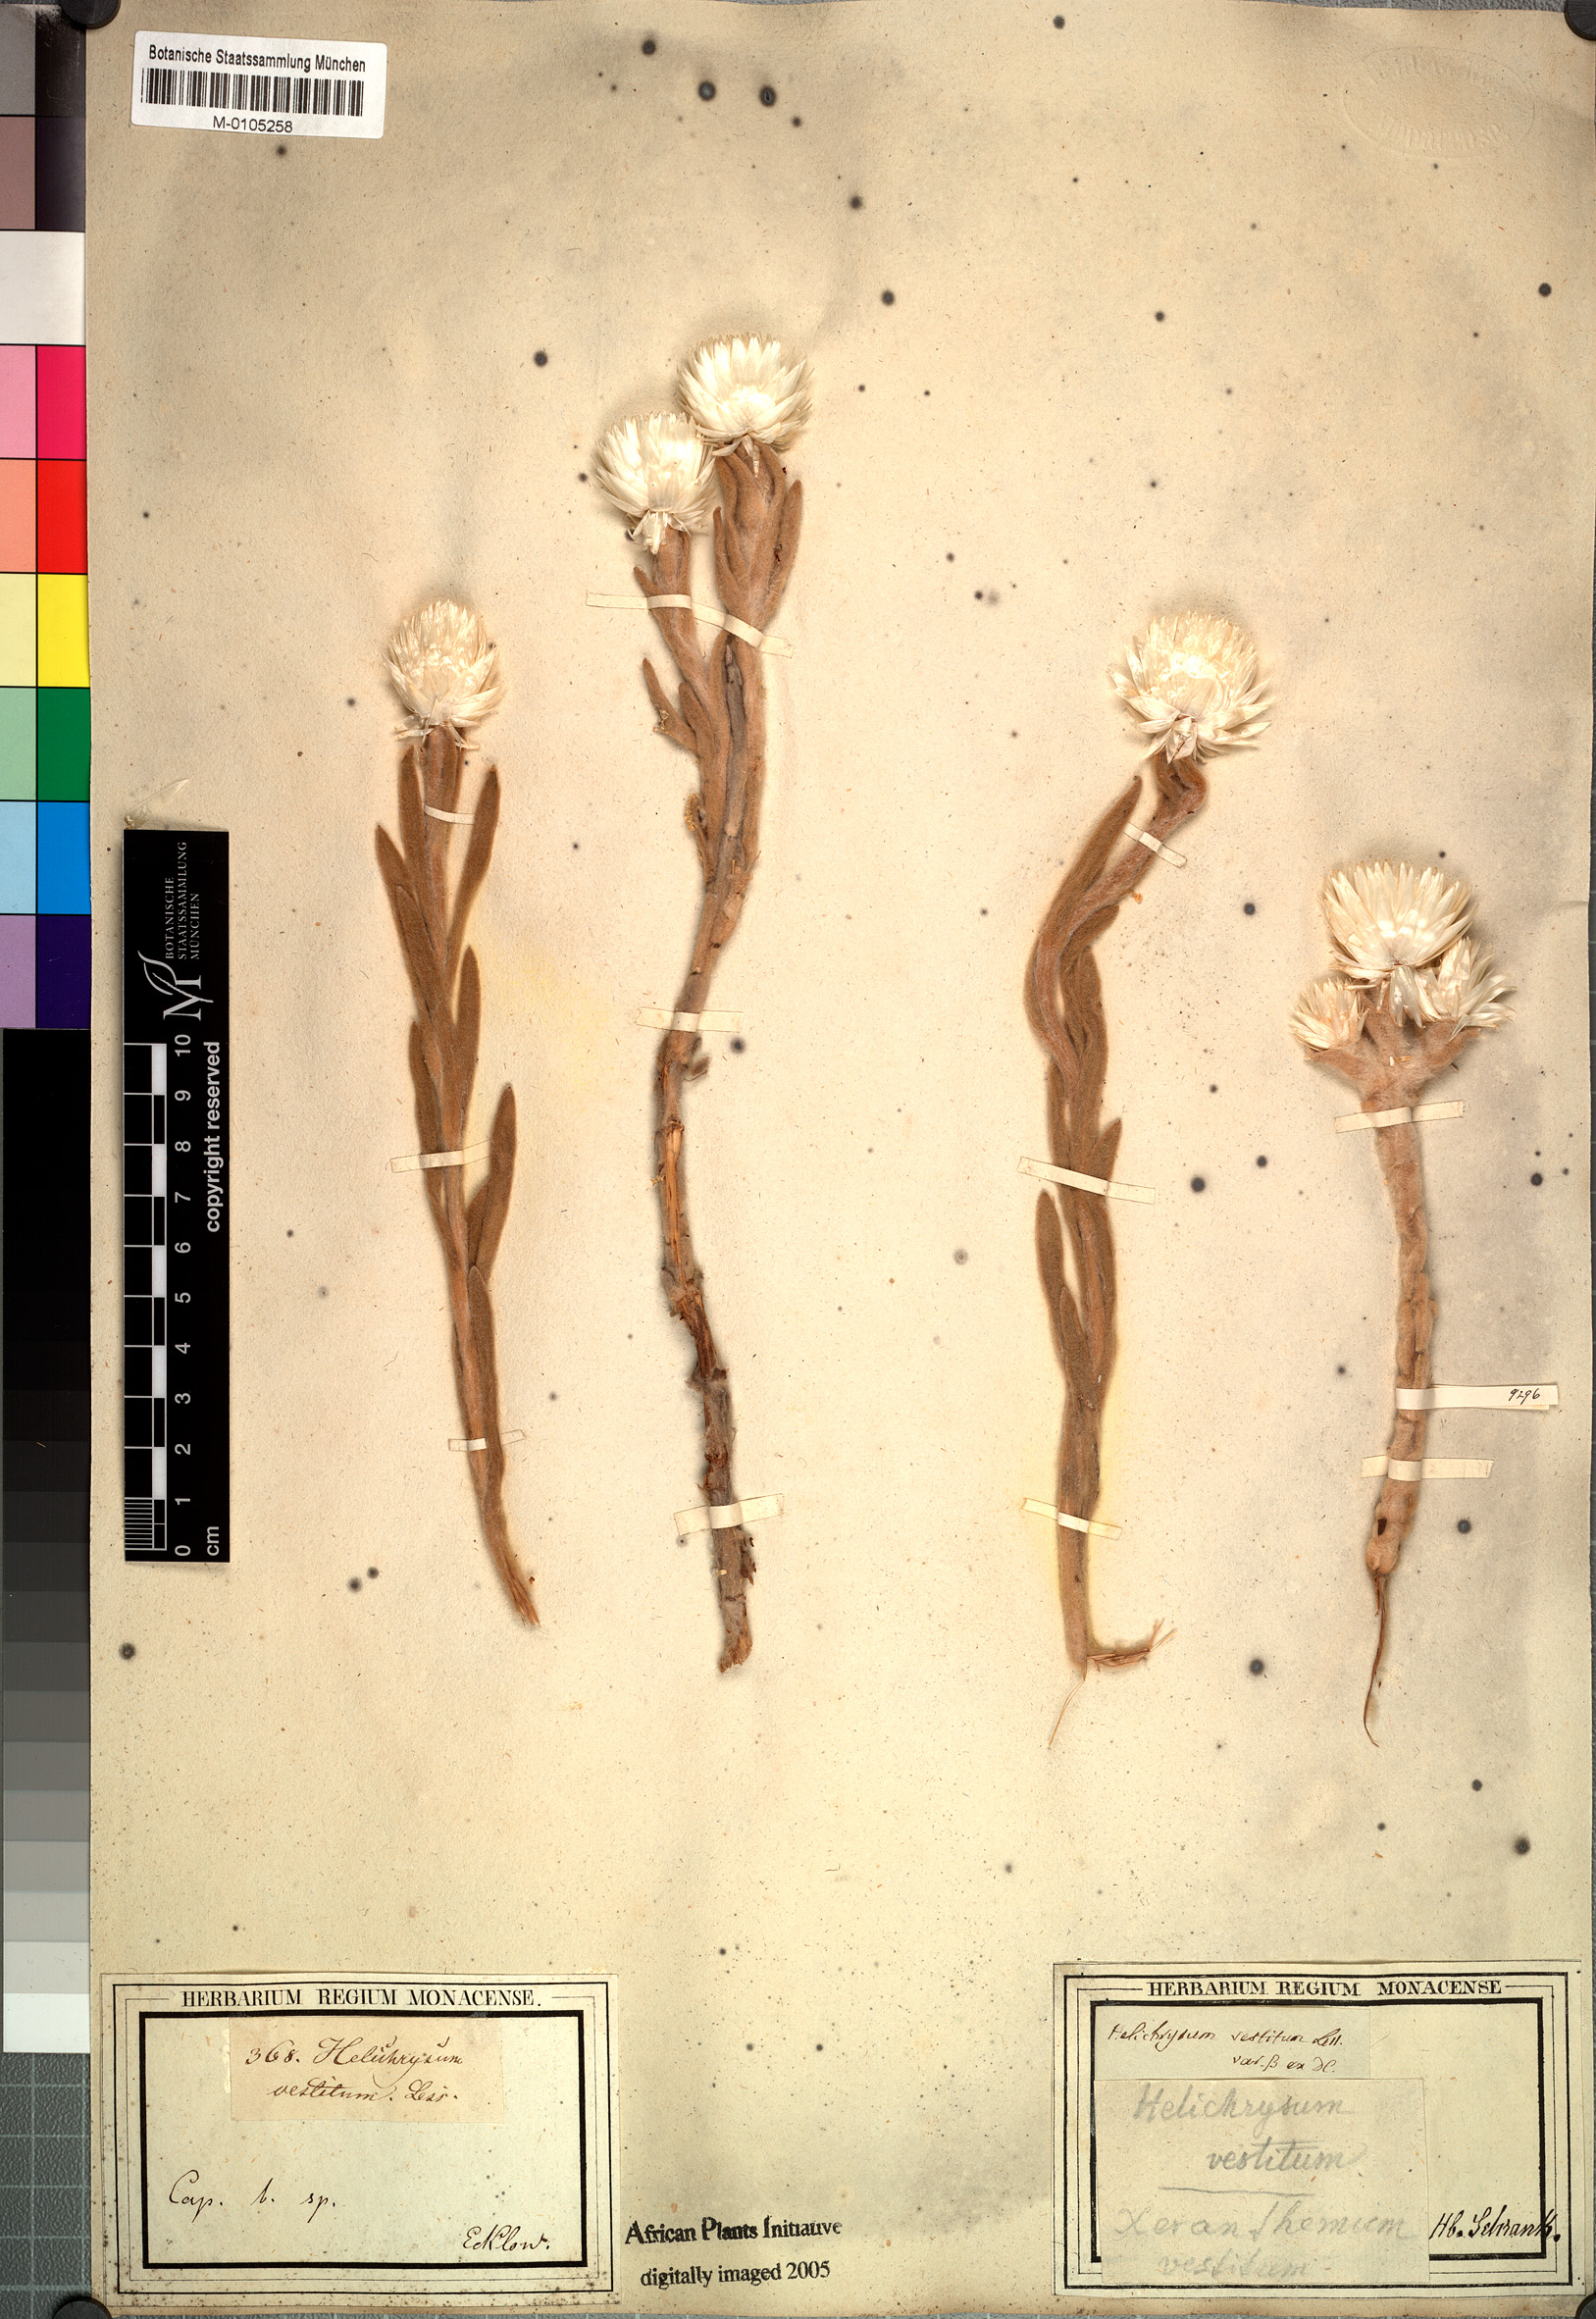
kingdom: Plantae
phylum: Tracheophyta
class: Magnoliopsida
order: Asterales
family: Asteraceae
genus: Syncarpha
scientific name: Syncarpha variegata
